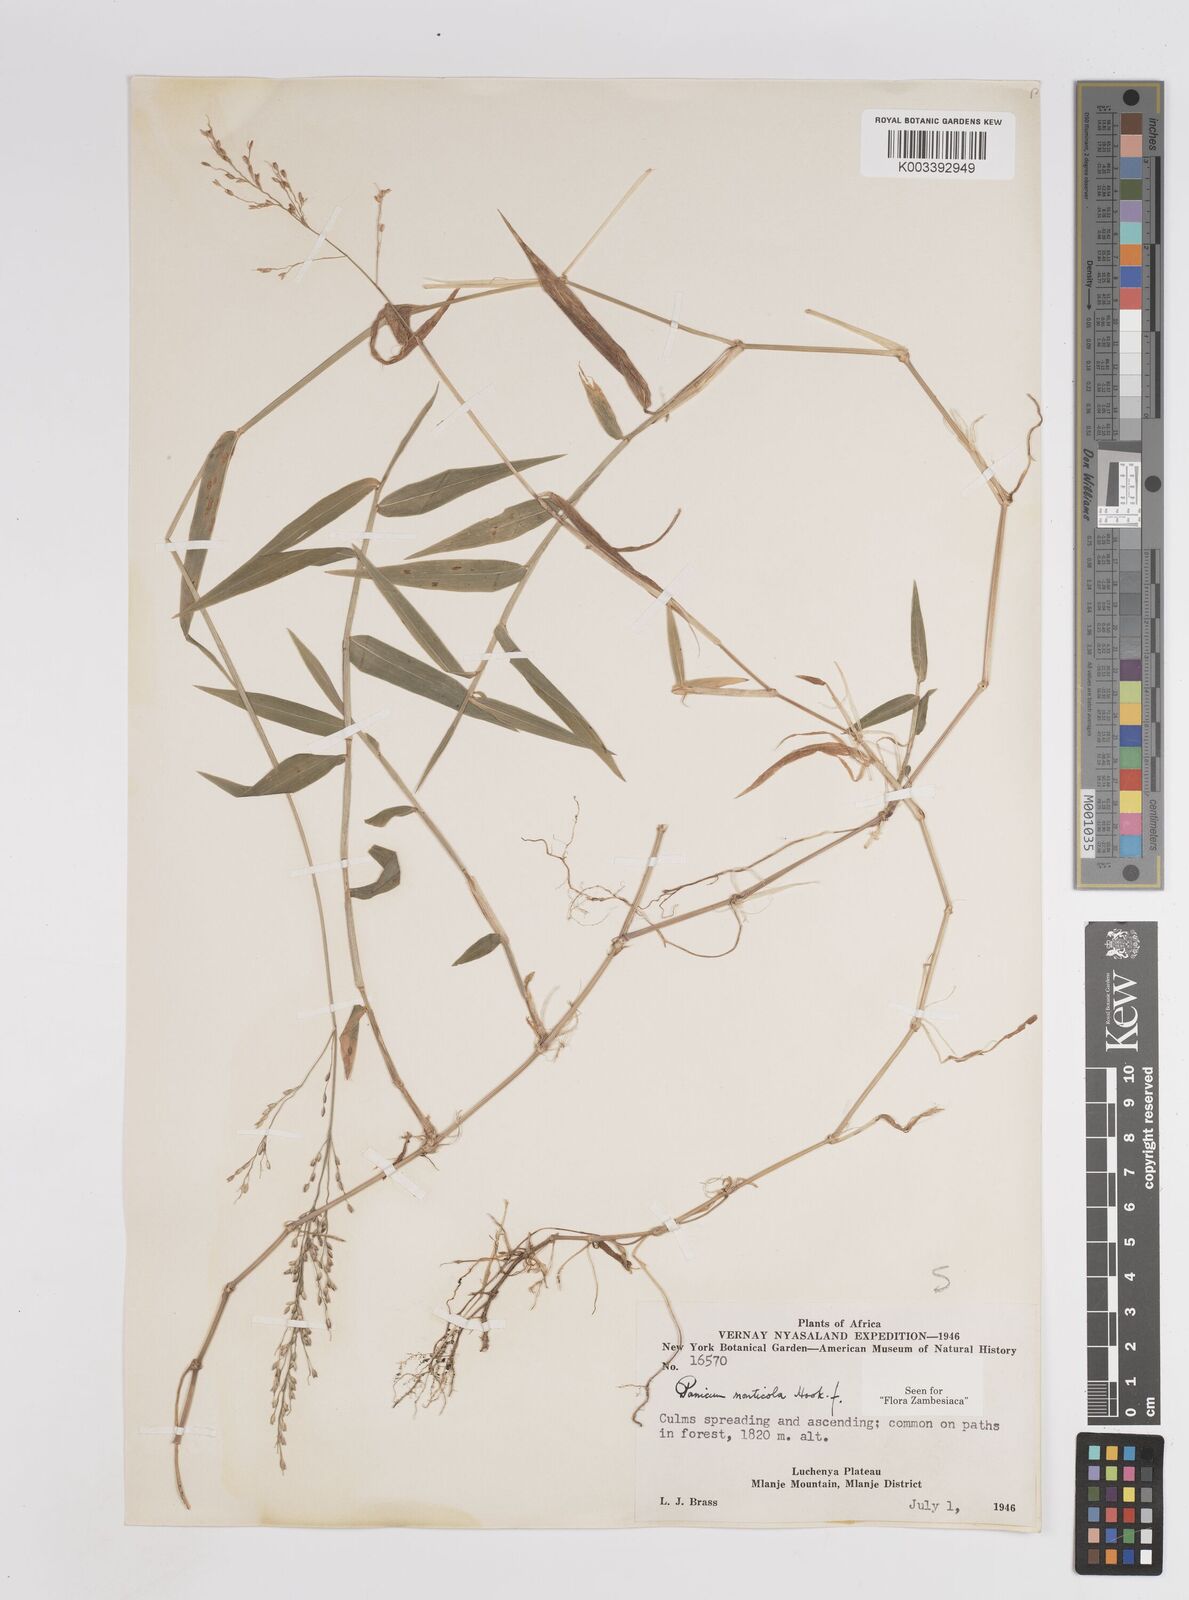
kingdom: Plantae
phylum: Tracheophyta
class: Liliopsida
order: Poales
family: Poaceae
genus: Panicum
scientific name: Panicum monticola
